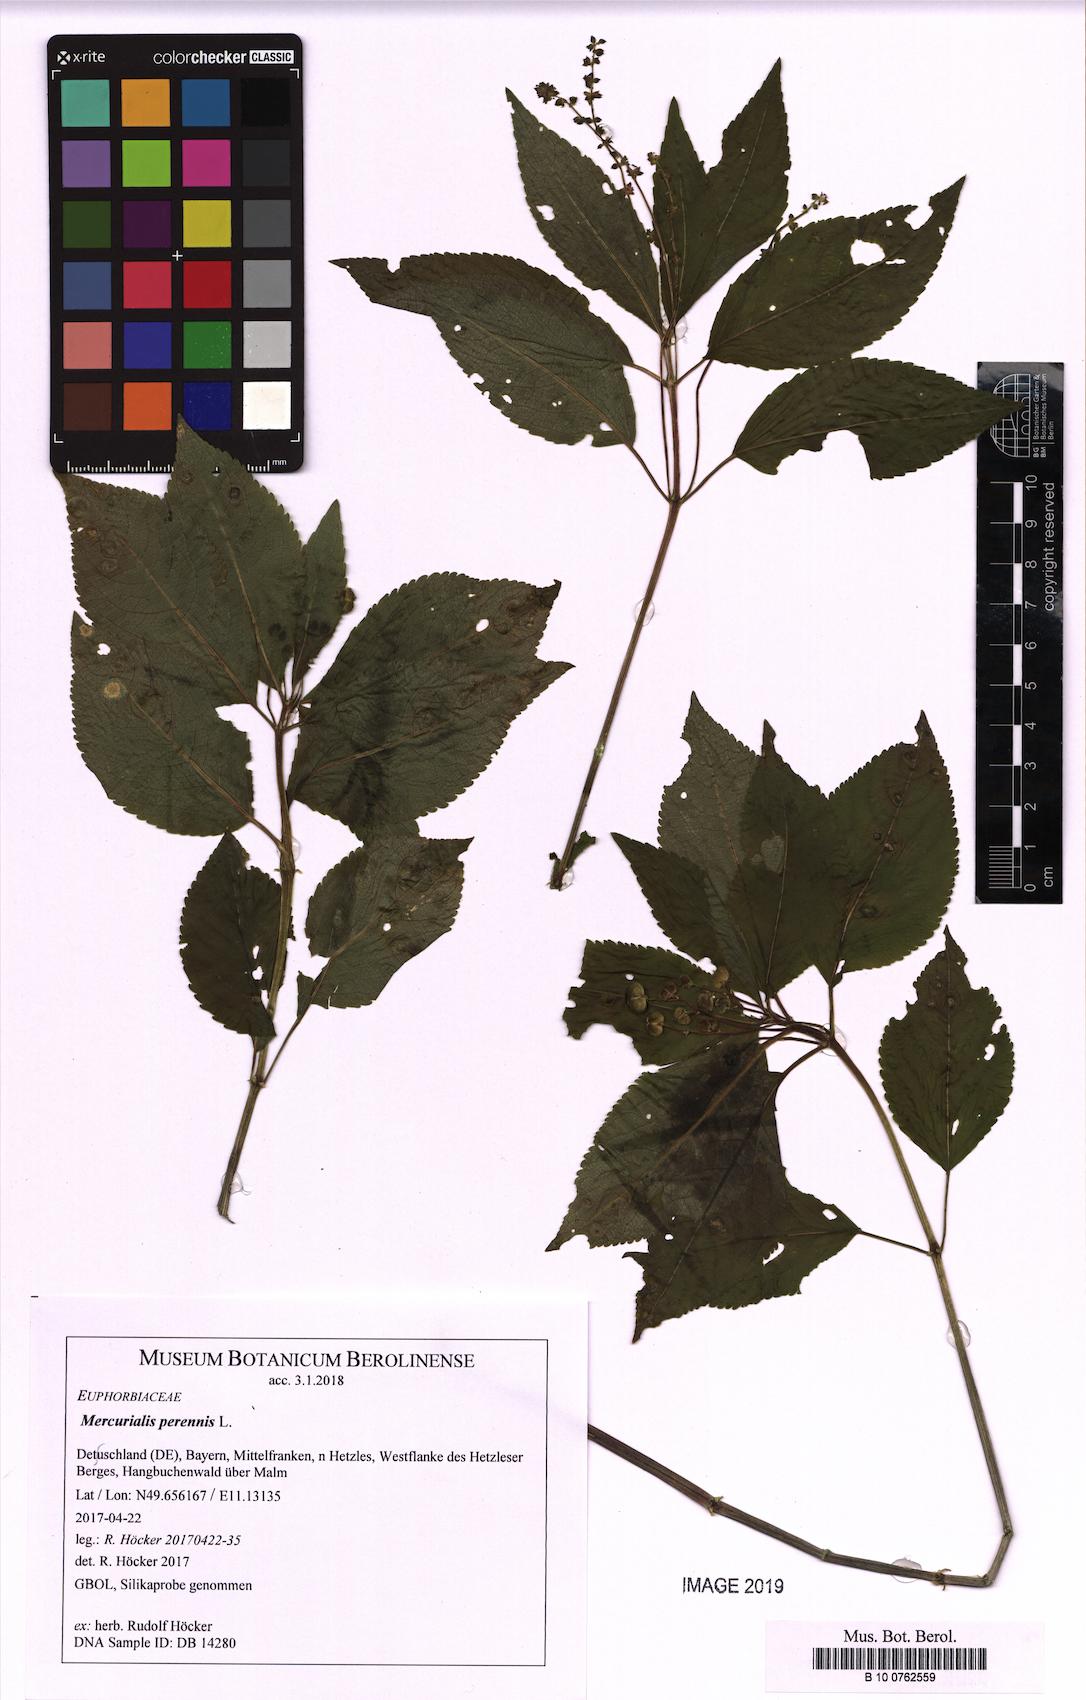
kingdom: Plantae
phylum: Tracheophyta
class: Magnoliopsida
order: Malpighiales
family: Euphorbiaceae
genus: Mercurialis
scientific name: Mercurialis perennis
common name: Dog mercury
